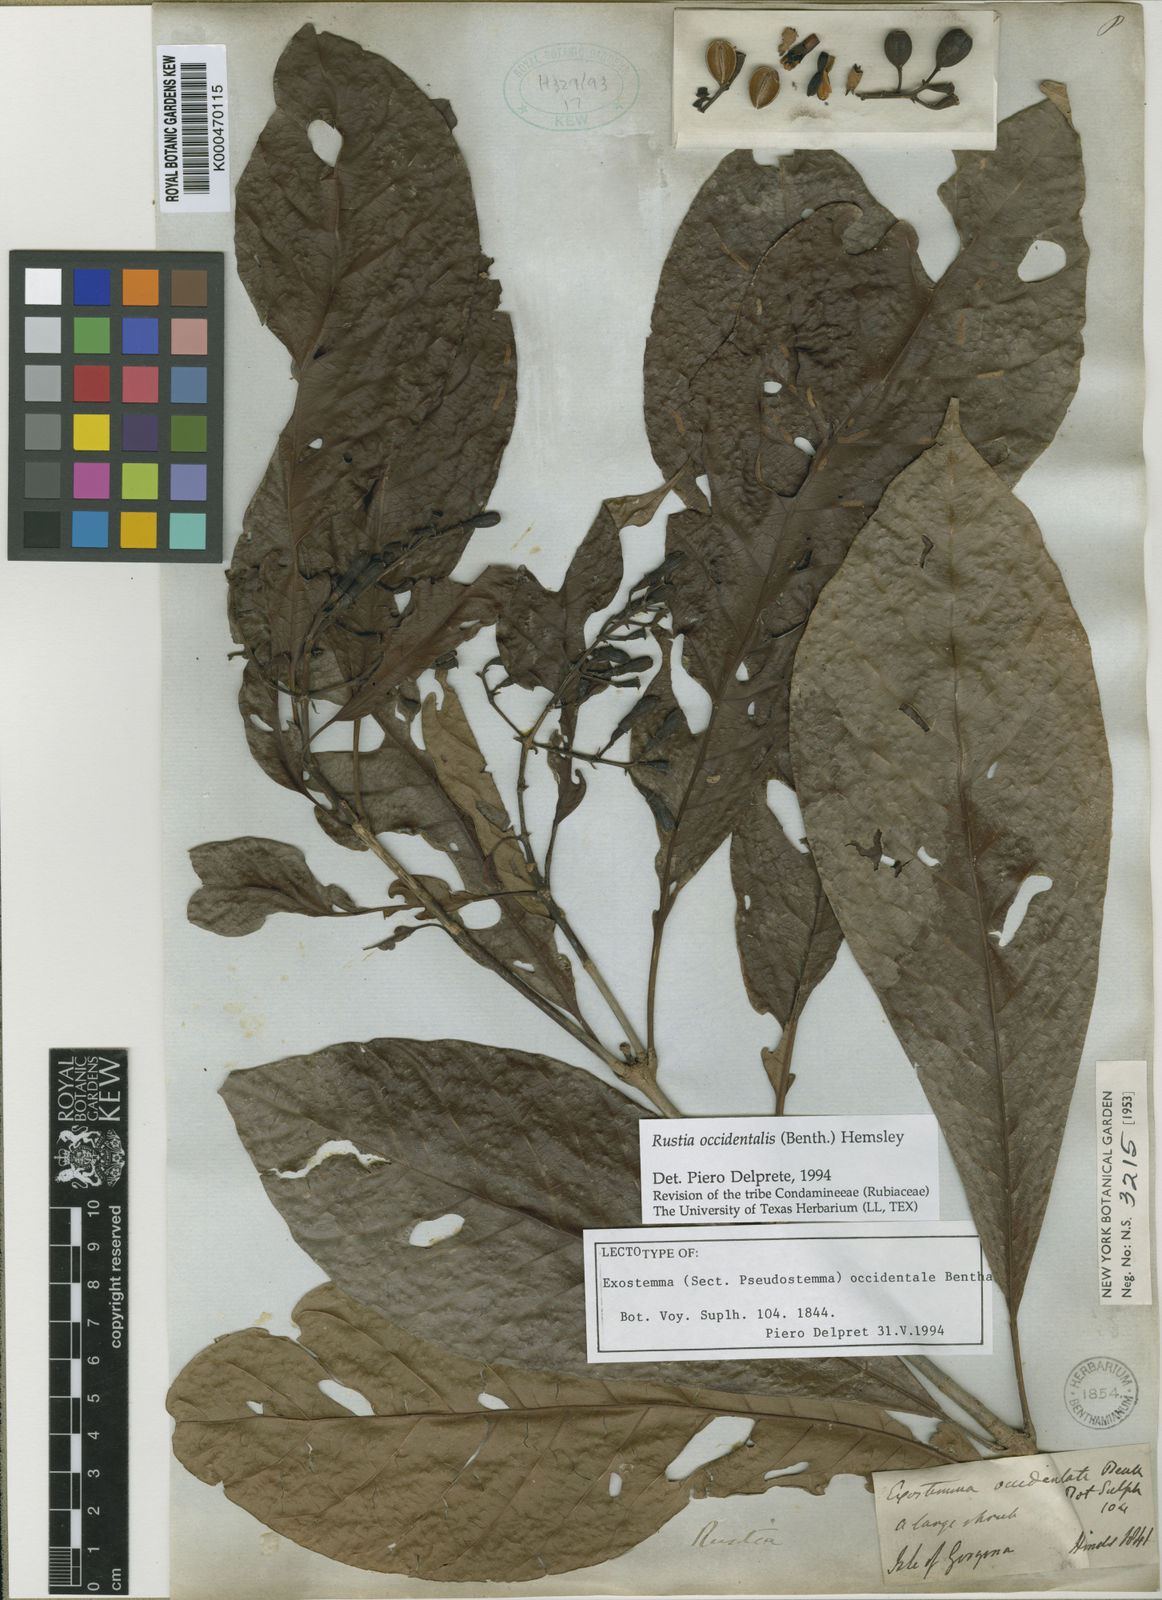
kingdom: Plantae
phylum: Tracheophyta
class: Magnoliopsida
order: Gentianales
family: Rubiaceae
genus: Rustia
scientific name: Rustia occidentalis
